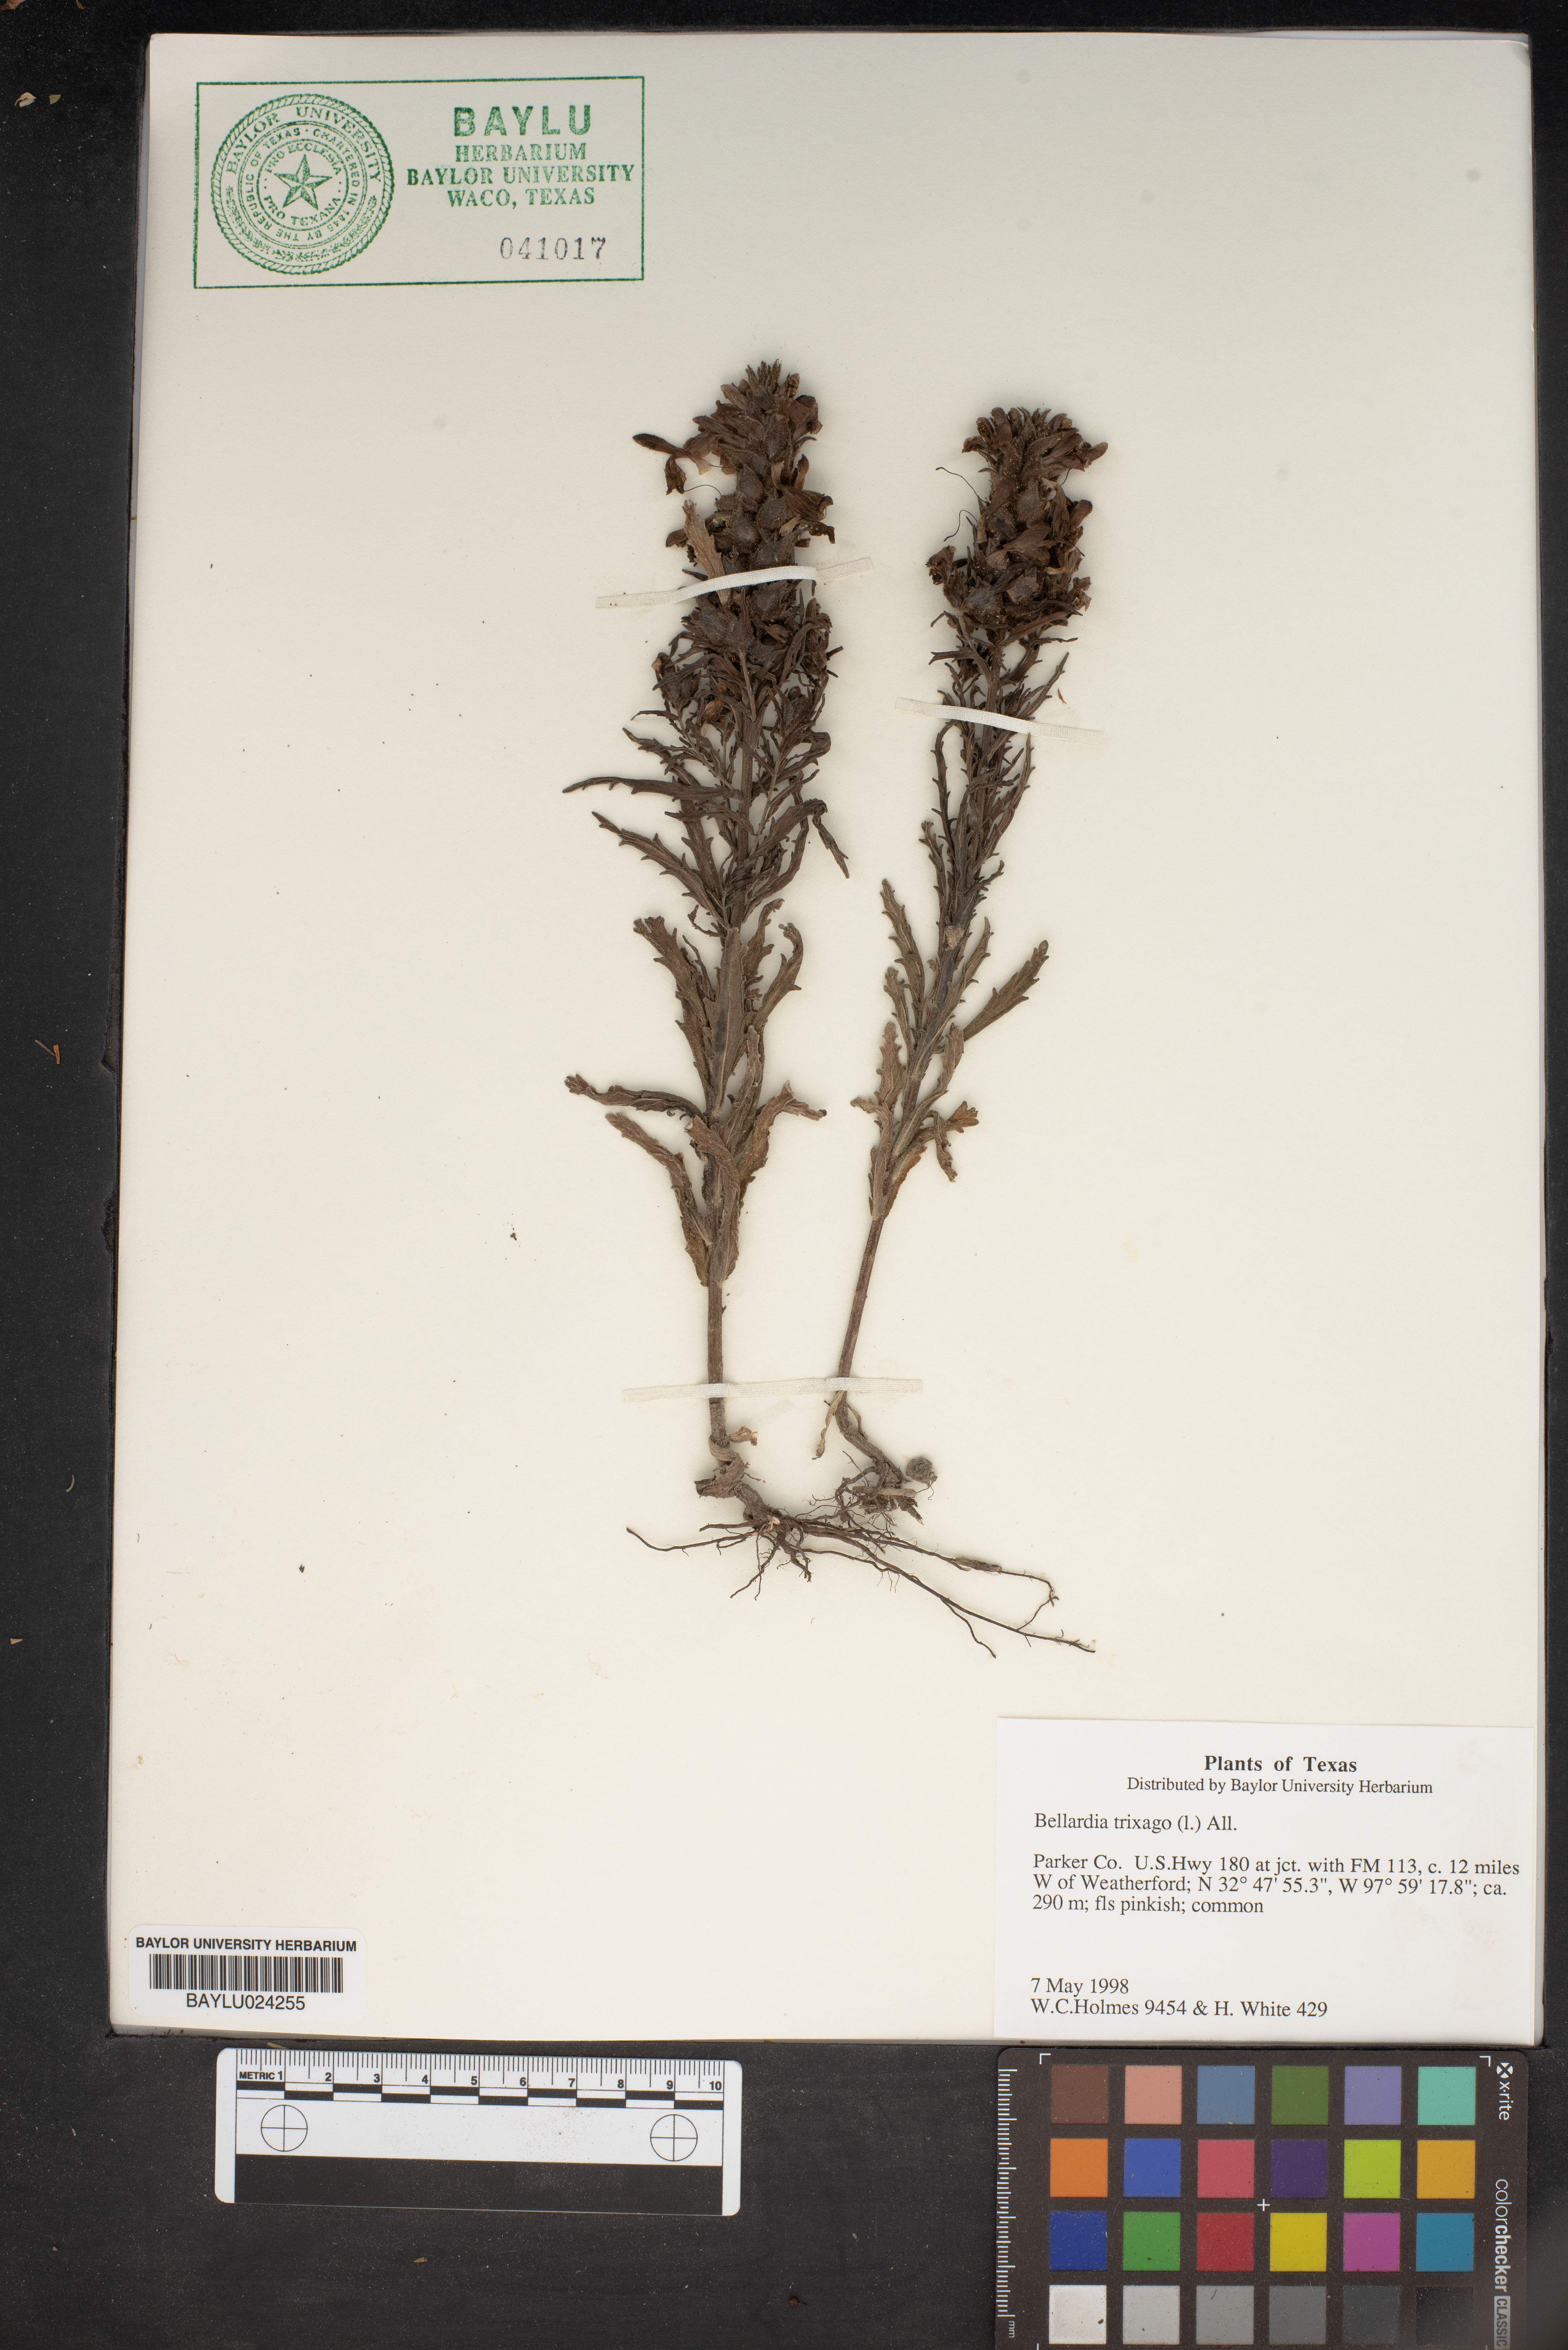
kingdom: Plantae
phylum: Tracheophyta
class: Magnoliopsida
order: Lamiales
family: Orobanchaceae
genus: Bellardia
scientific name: Bellardia trixago
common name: Mediterranean lineseed
